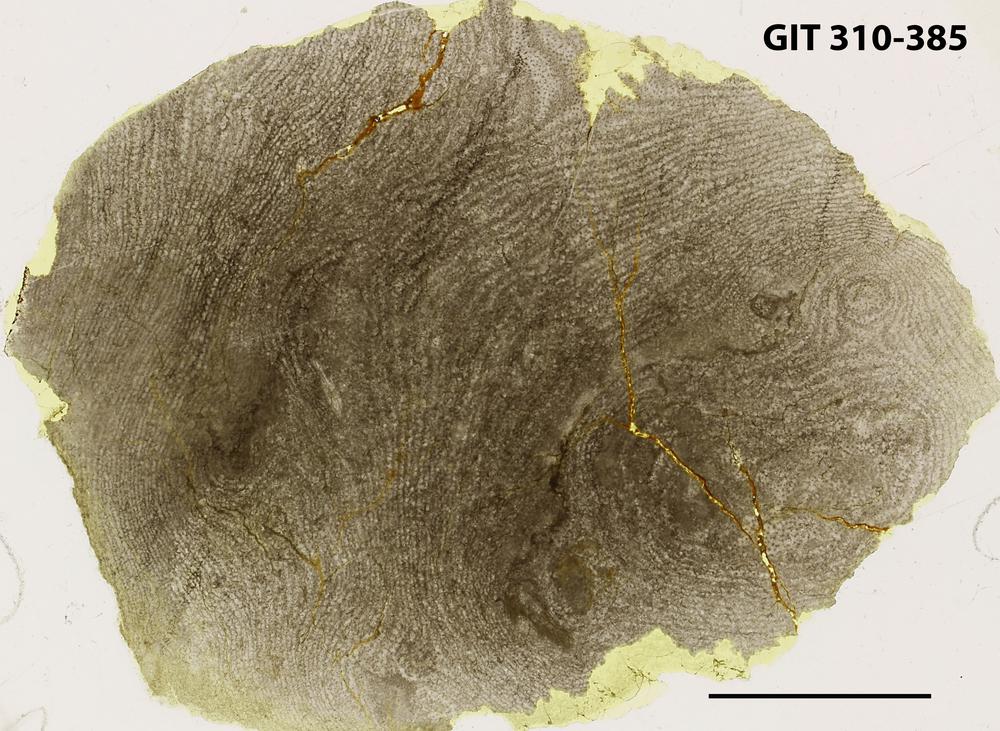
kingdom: Animalia
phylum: Porifera
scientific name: Porifera
